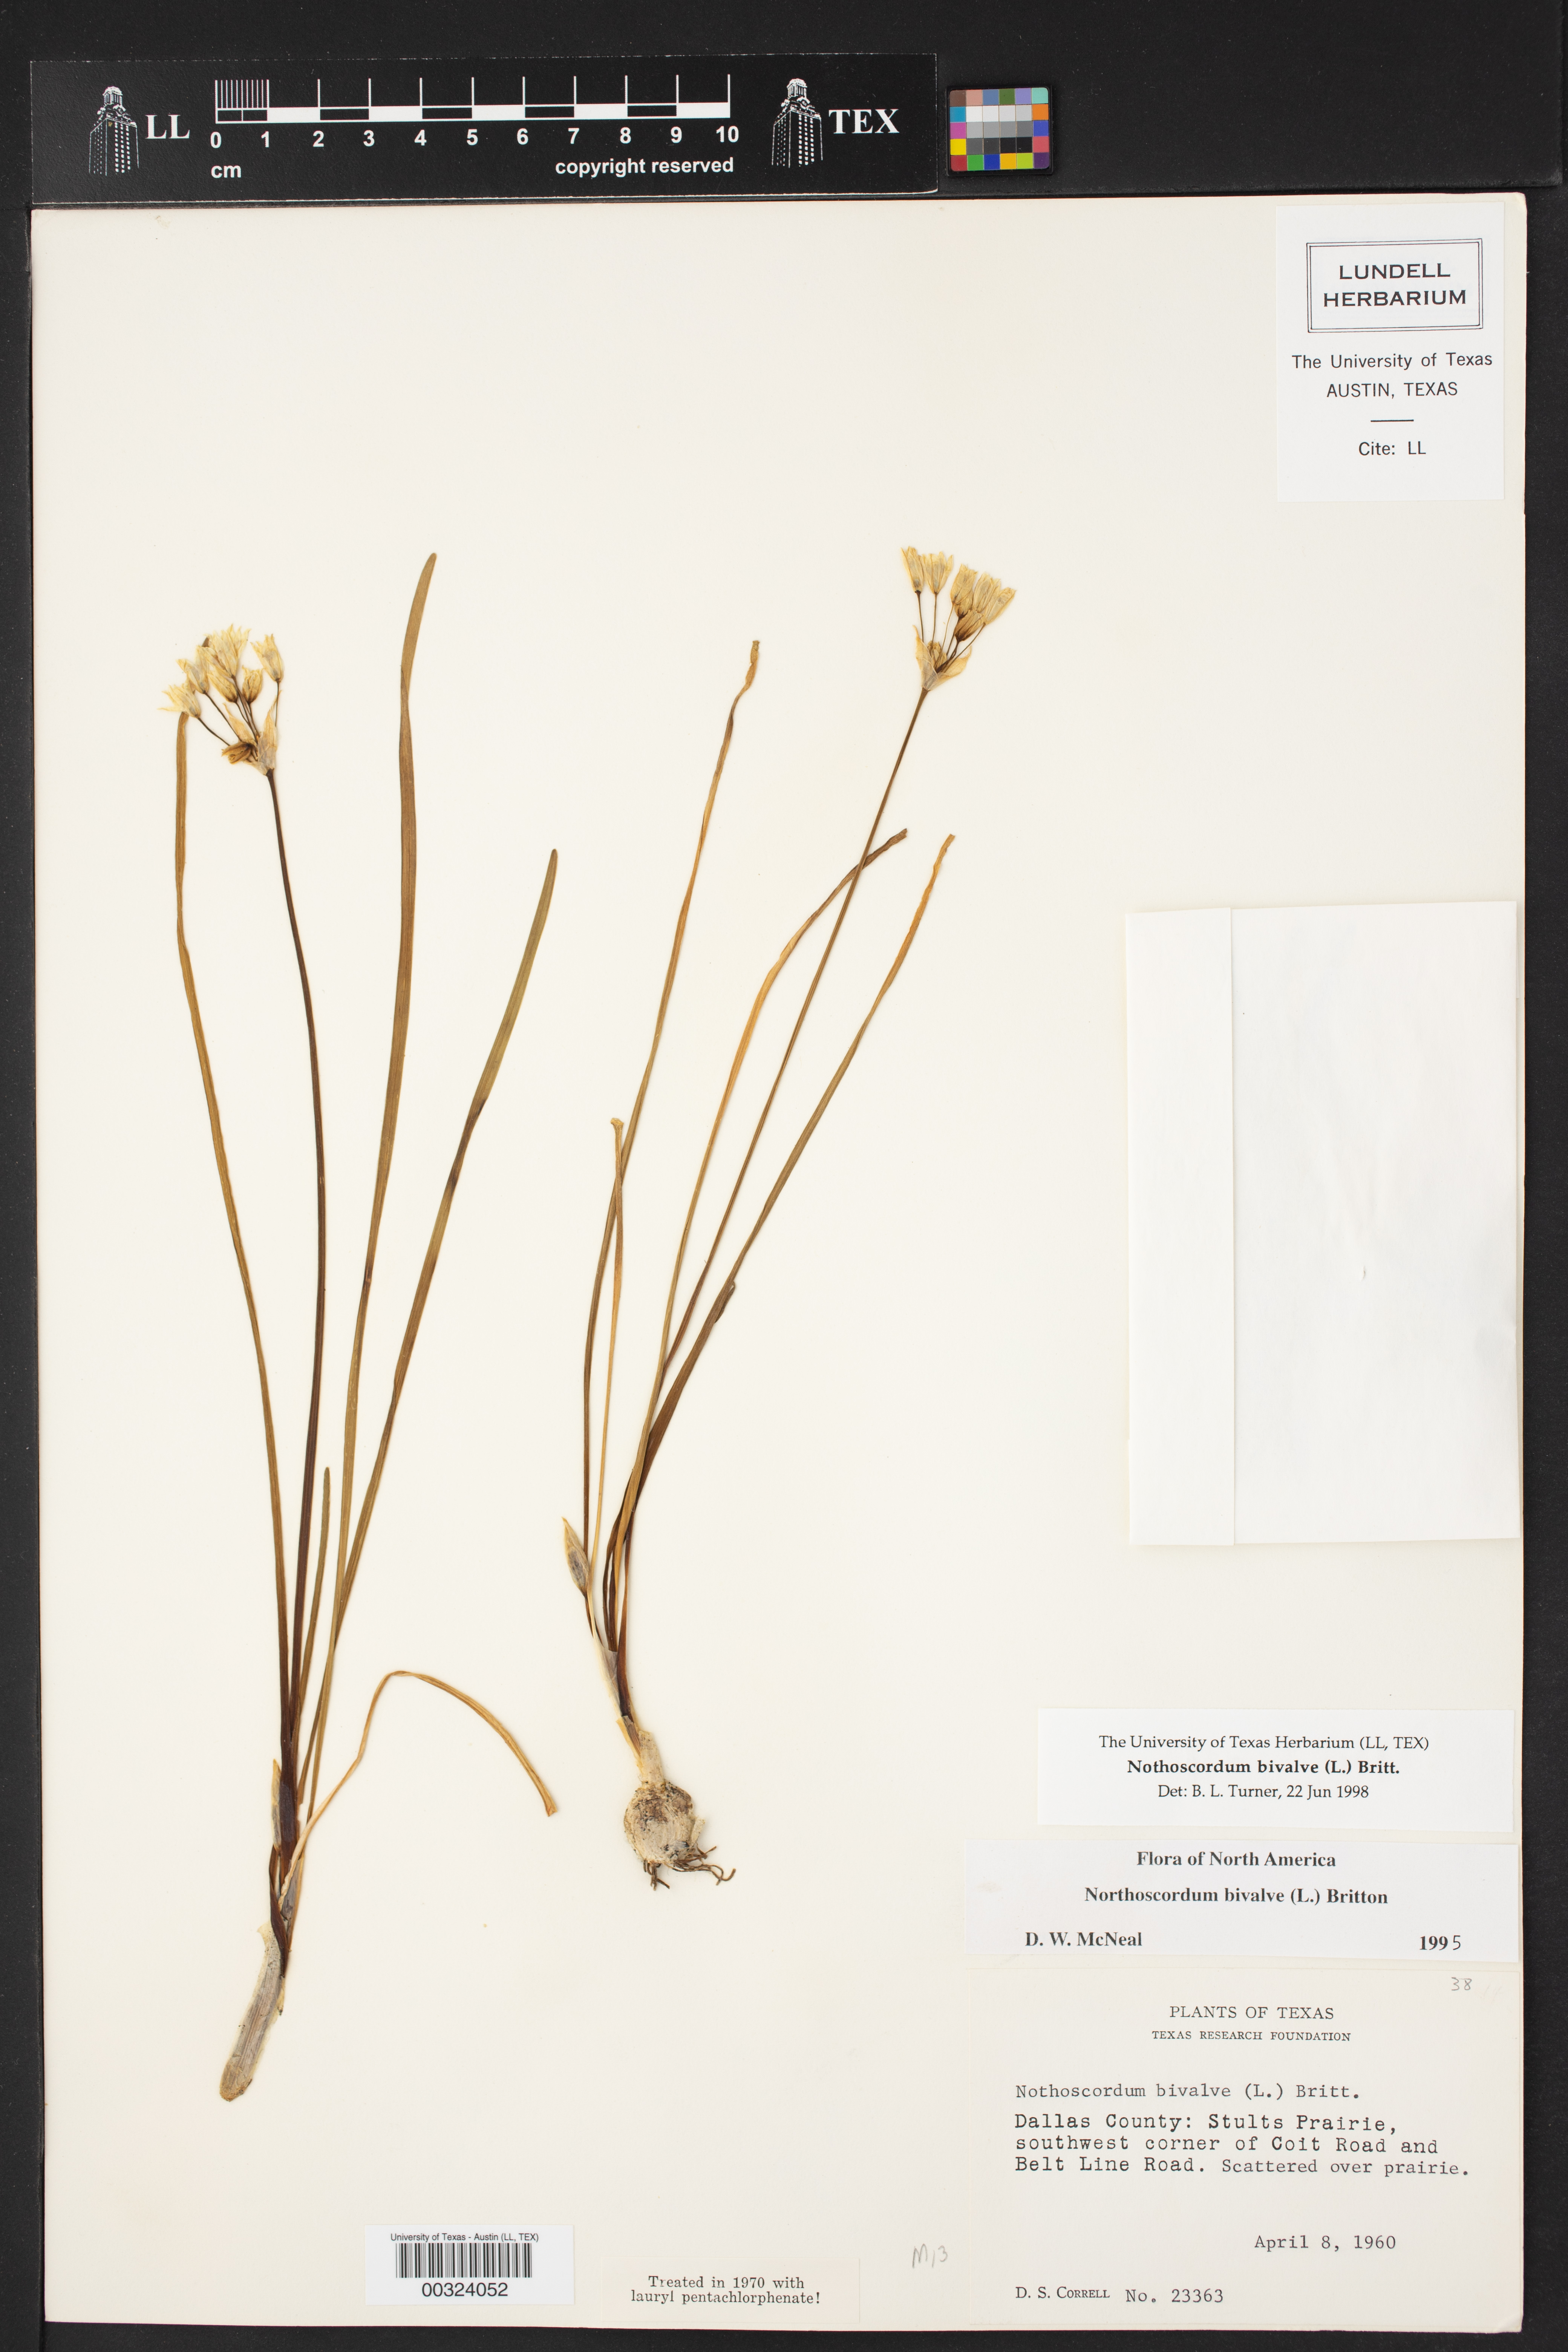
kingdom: Plantae
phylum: Tracheophyta
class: Liliopsida
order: Asparagales
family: Amaryllidaceae
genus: Nothoscordum
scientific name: Nothoscordum bivalve
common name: Crow-poison
